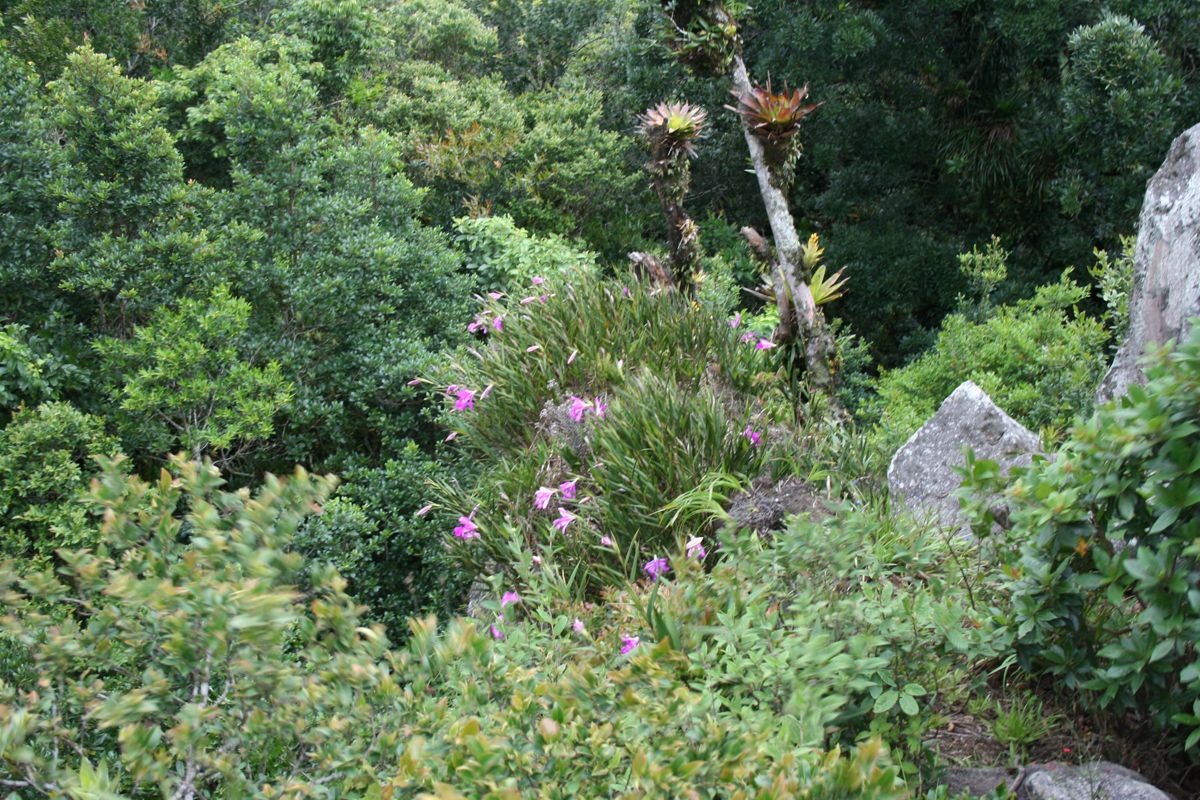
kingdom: Plantae
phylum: Tracheophyta
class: Liliopsida
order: Asparagales
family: Orchidaceae
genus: Sobralia
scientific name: Sobralia macrantha
